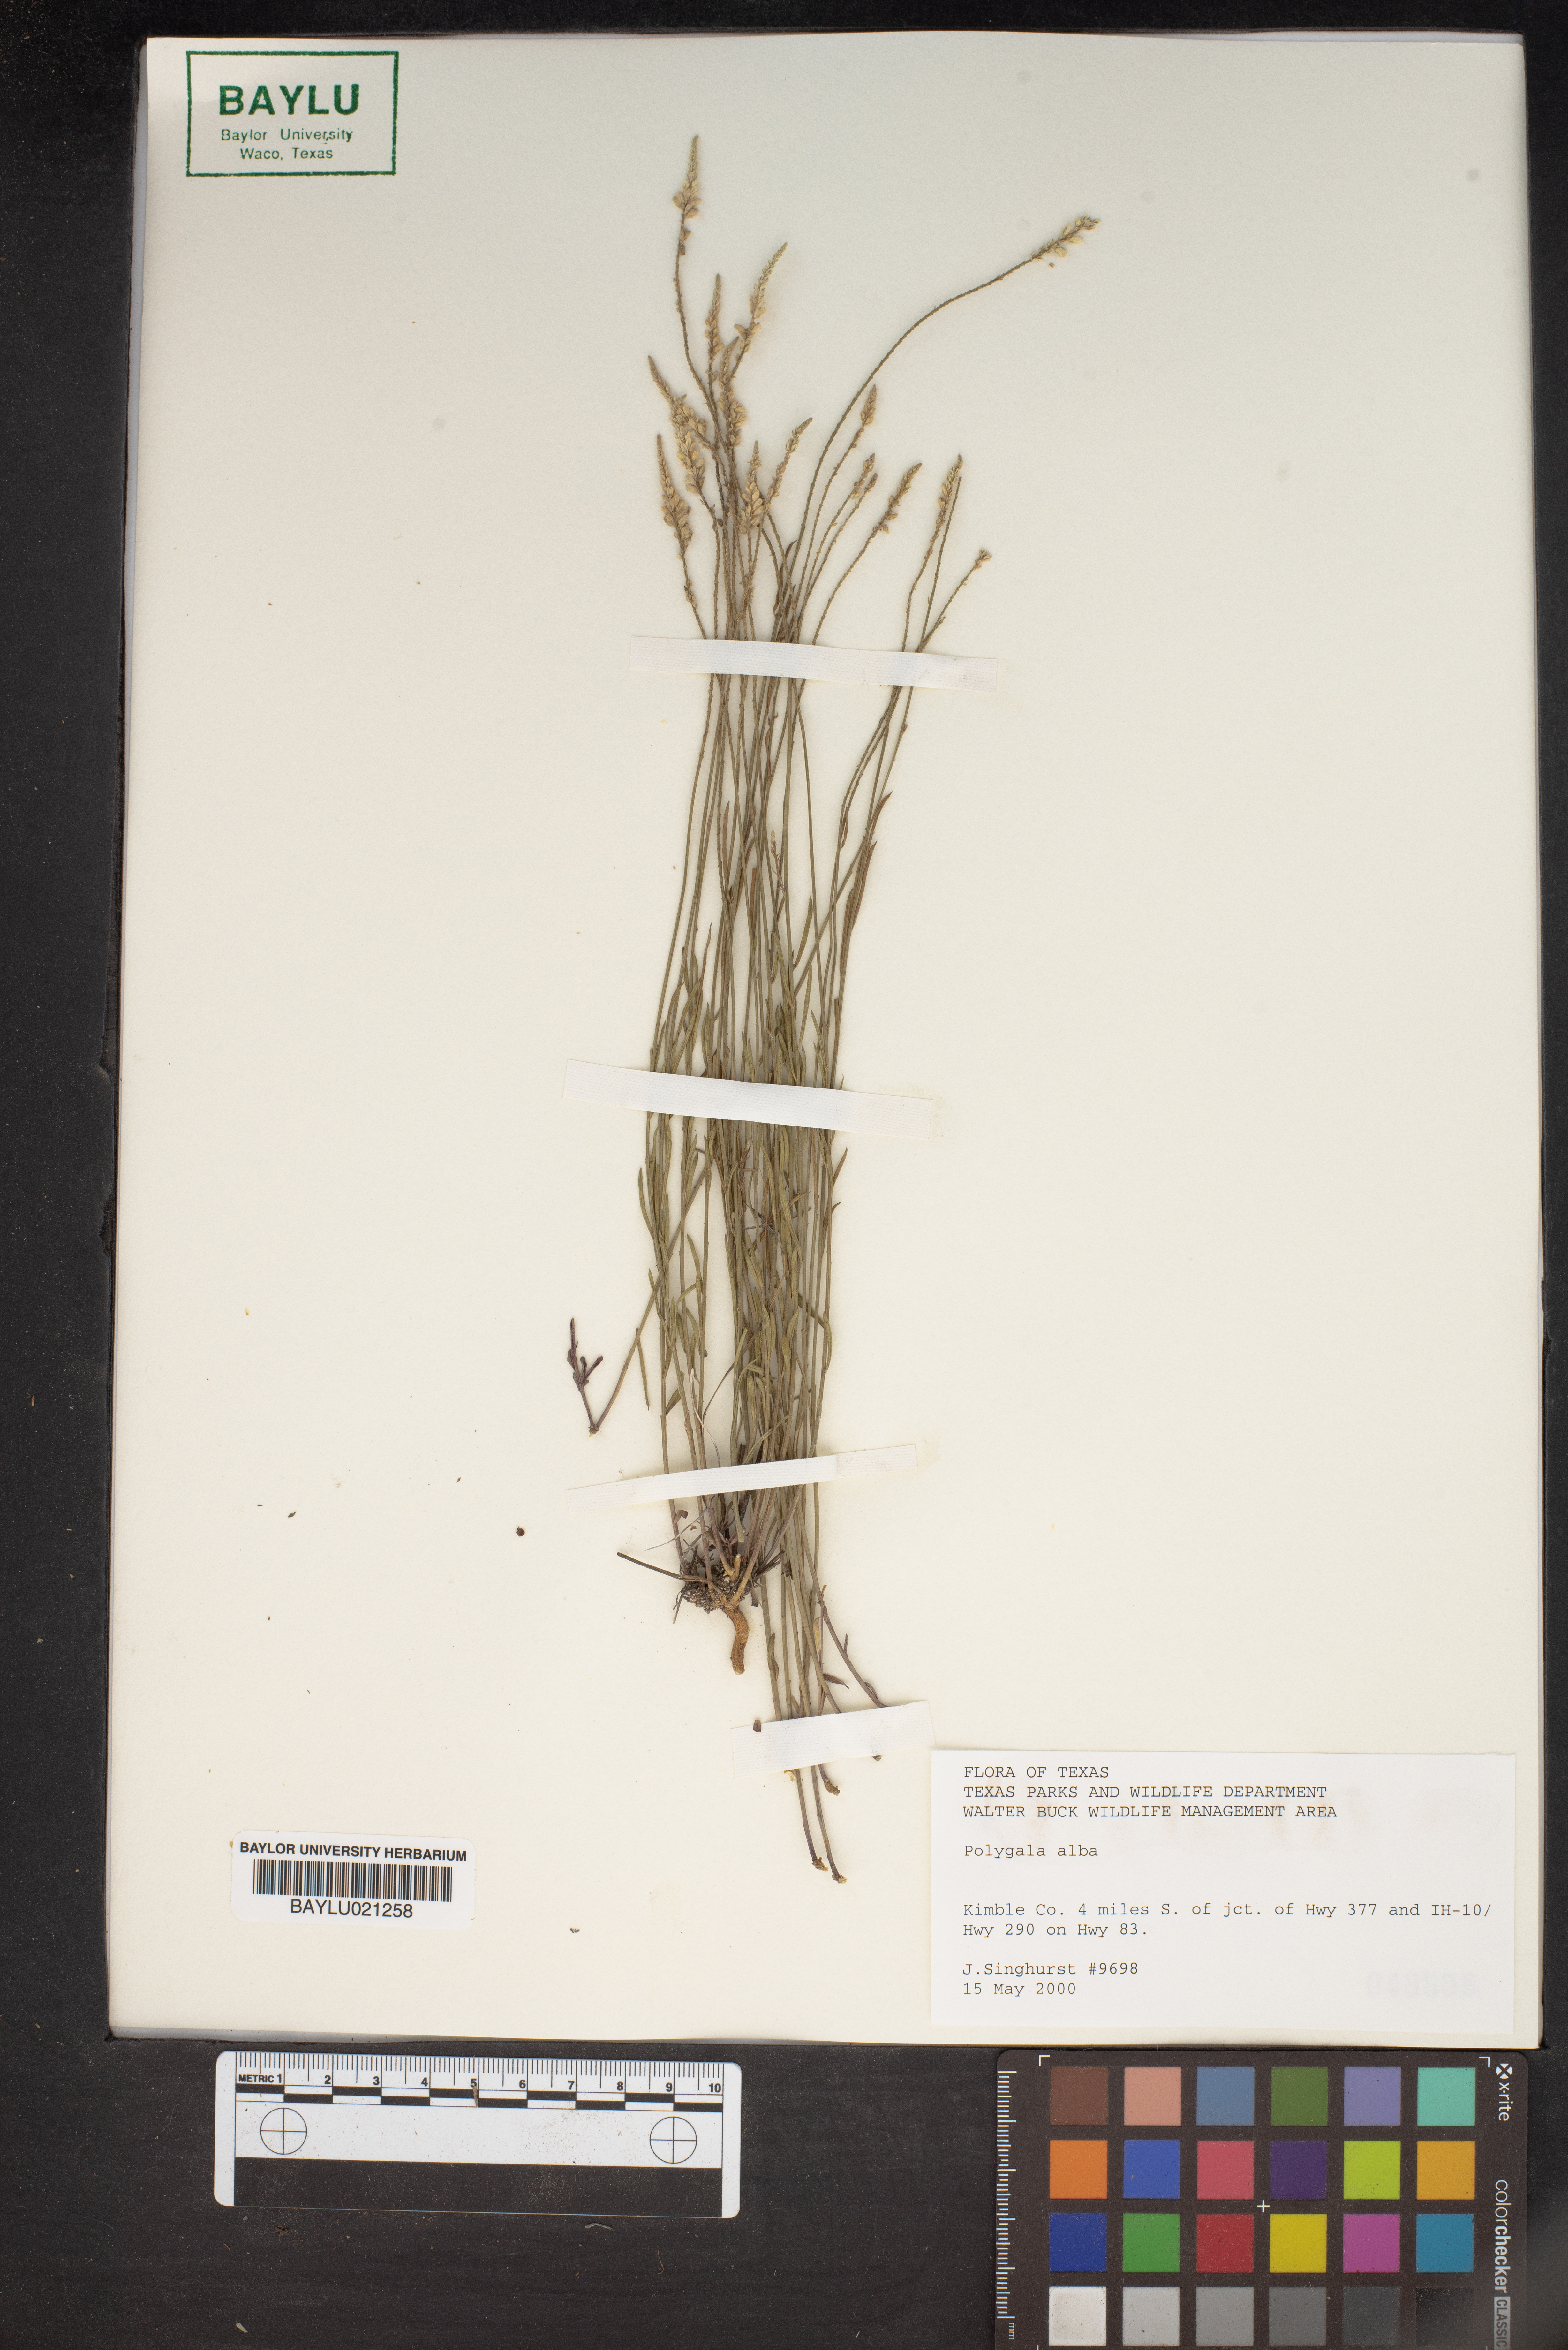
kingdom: Plantae
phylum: Tracheophyta
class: Magnoliopsida
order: Fabales
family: Polygalaceae
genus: Polygala
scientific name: Polygala alba
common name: White milkwort
